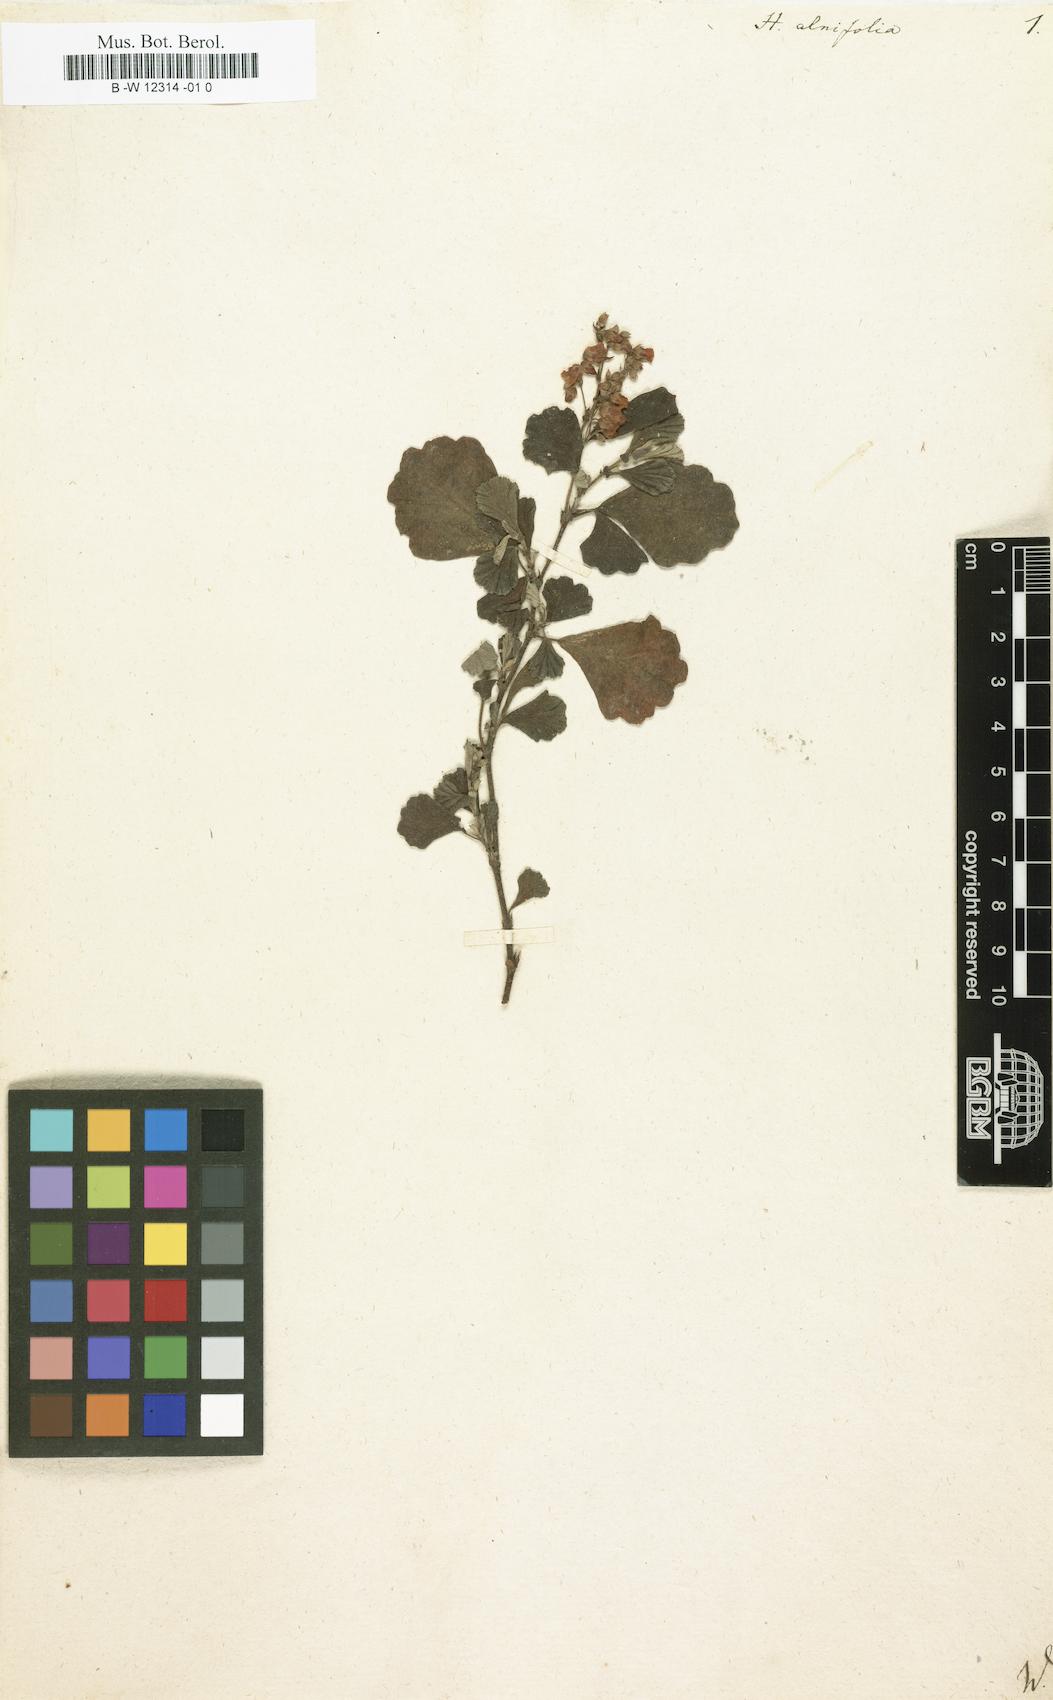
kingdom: Plantae
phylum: Tracheophyta
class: Magnoliopsida
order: Malvales
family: Malvaceae
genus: Hermannia
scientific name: Hermannia alnifolia
